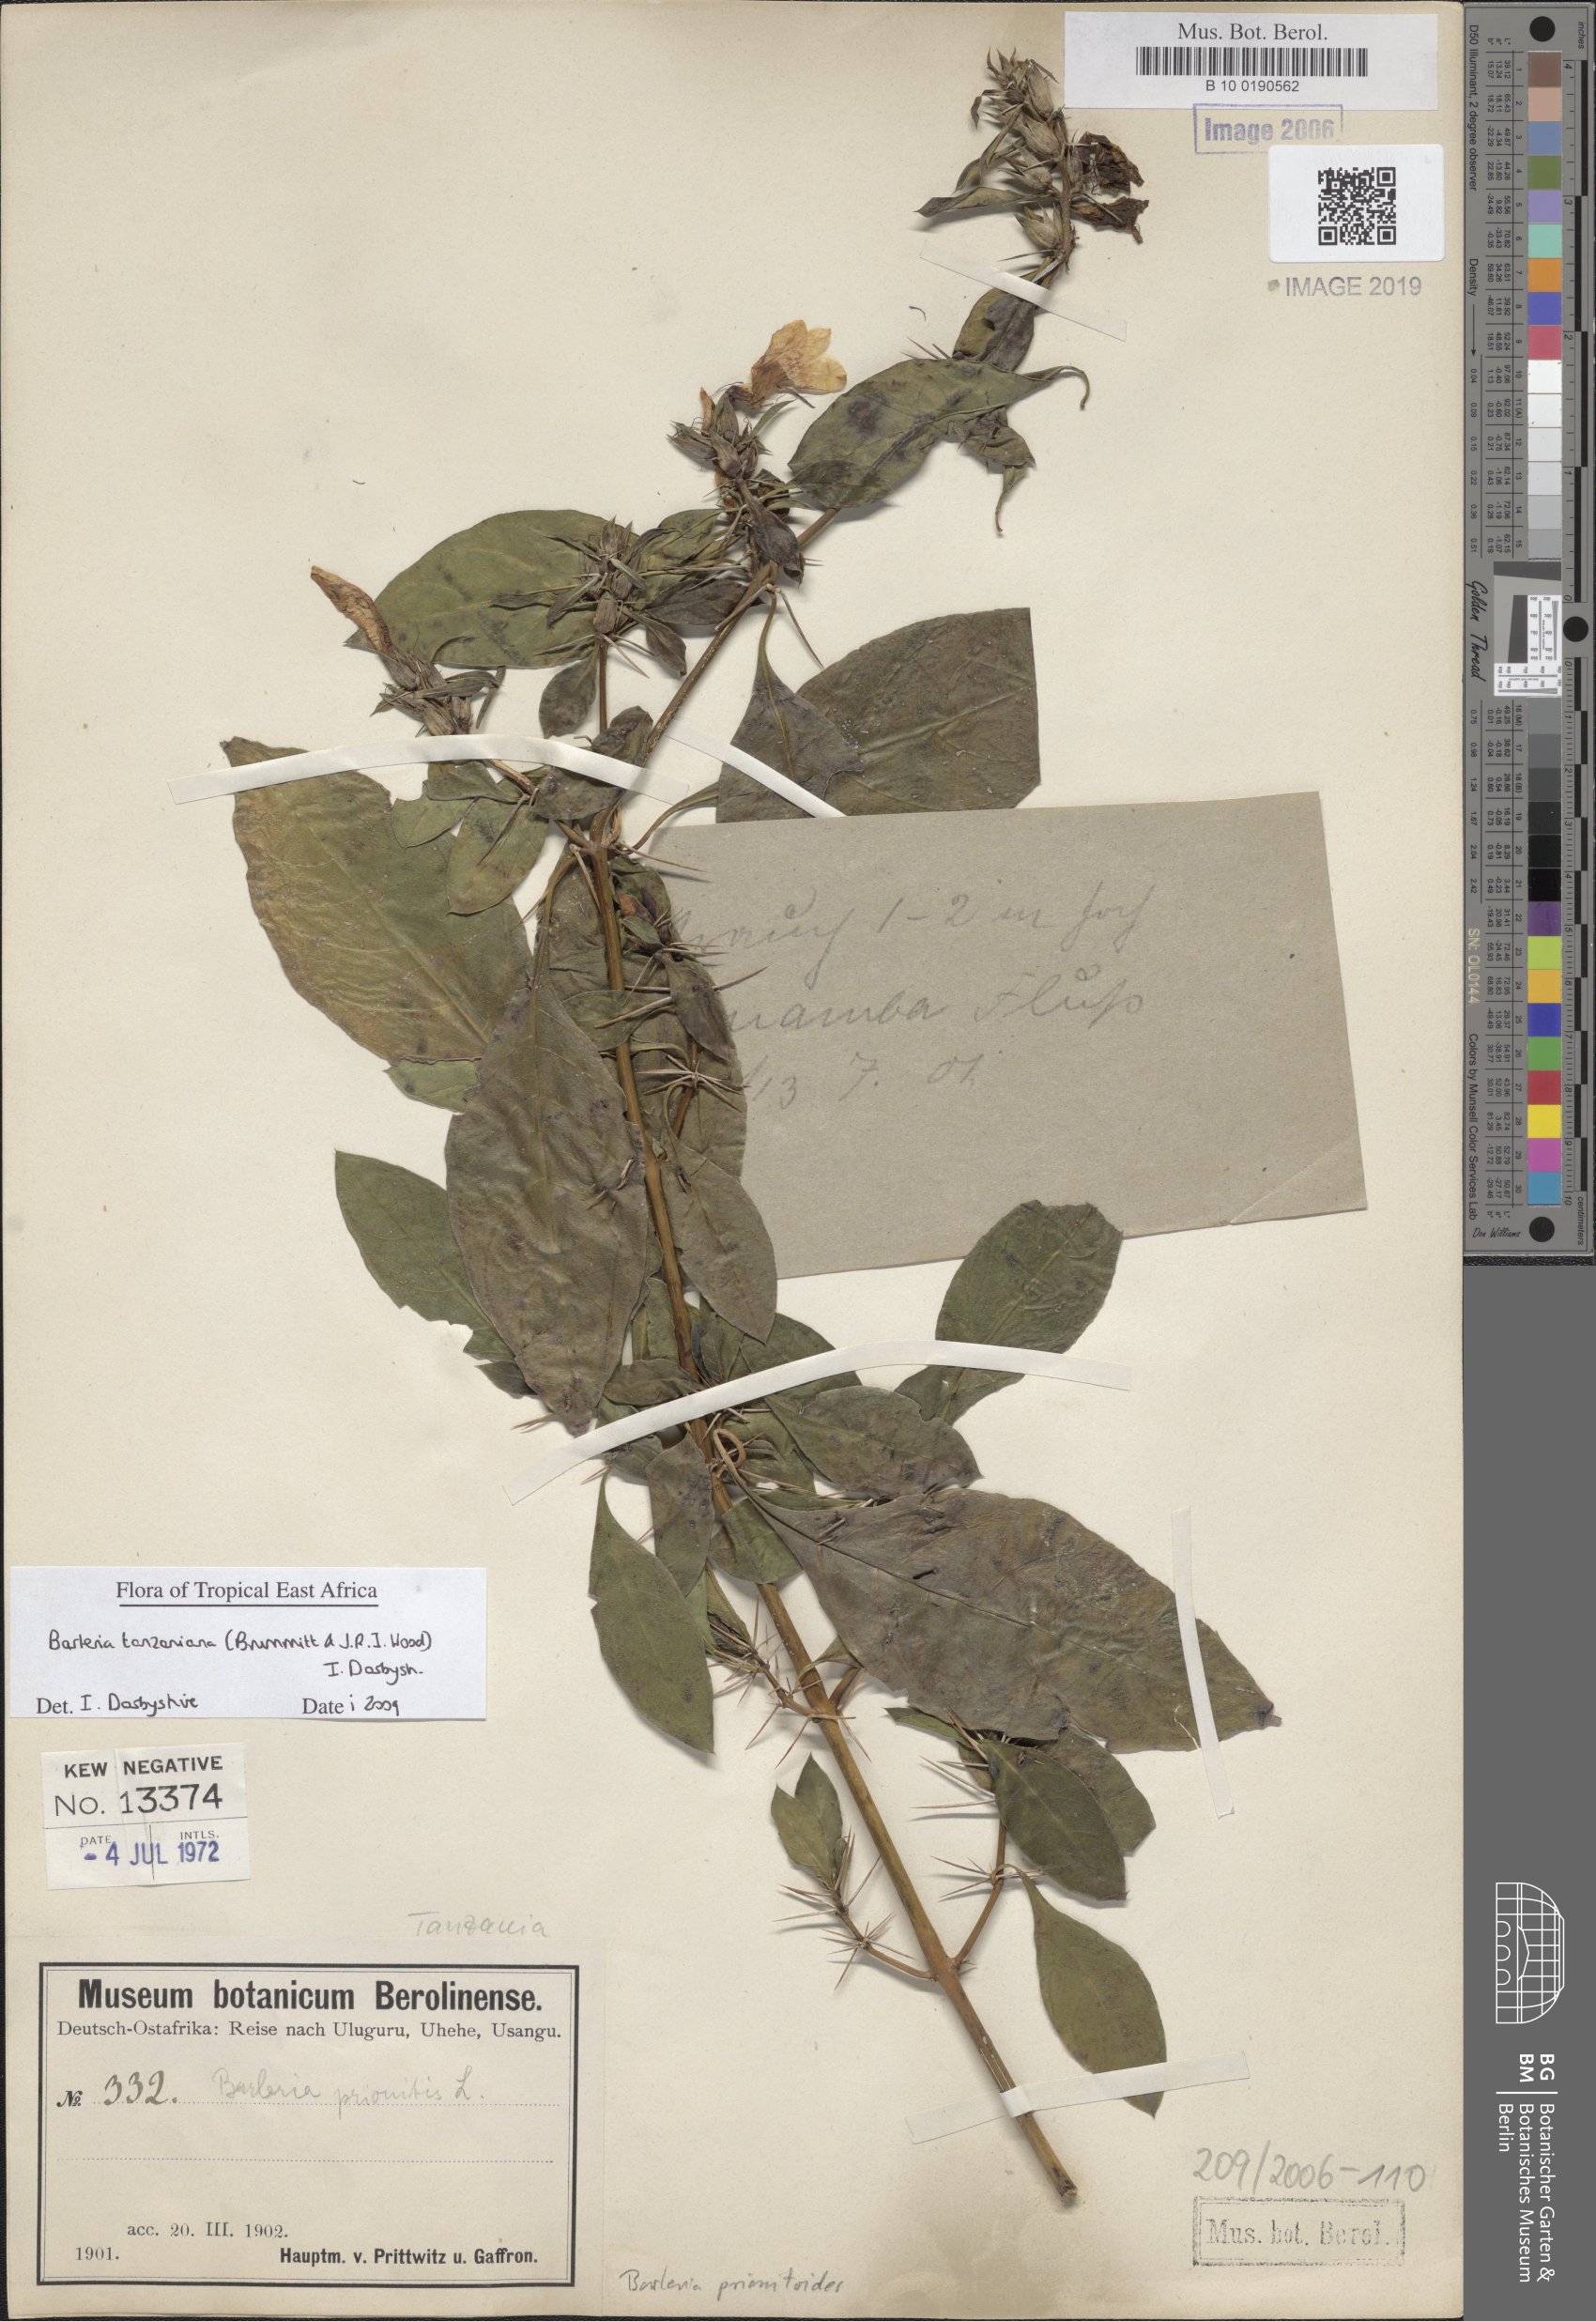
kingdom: Plantae
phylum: Tracheophyta
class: Magnoliopsida
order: Lamiales
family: Acanthaceae
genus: Barleria
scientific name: Barleria prionitis
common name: Barleria
